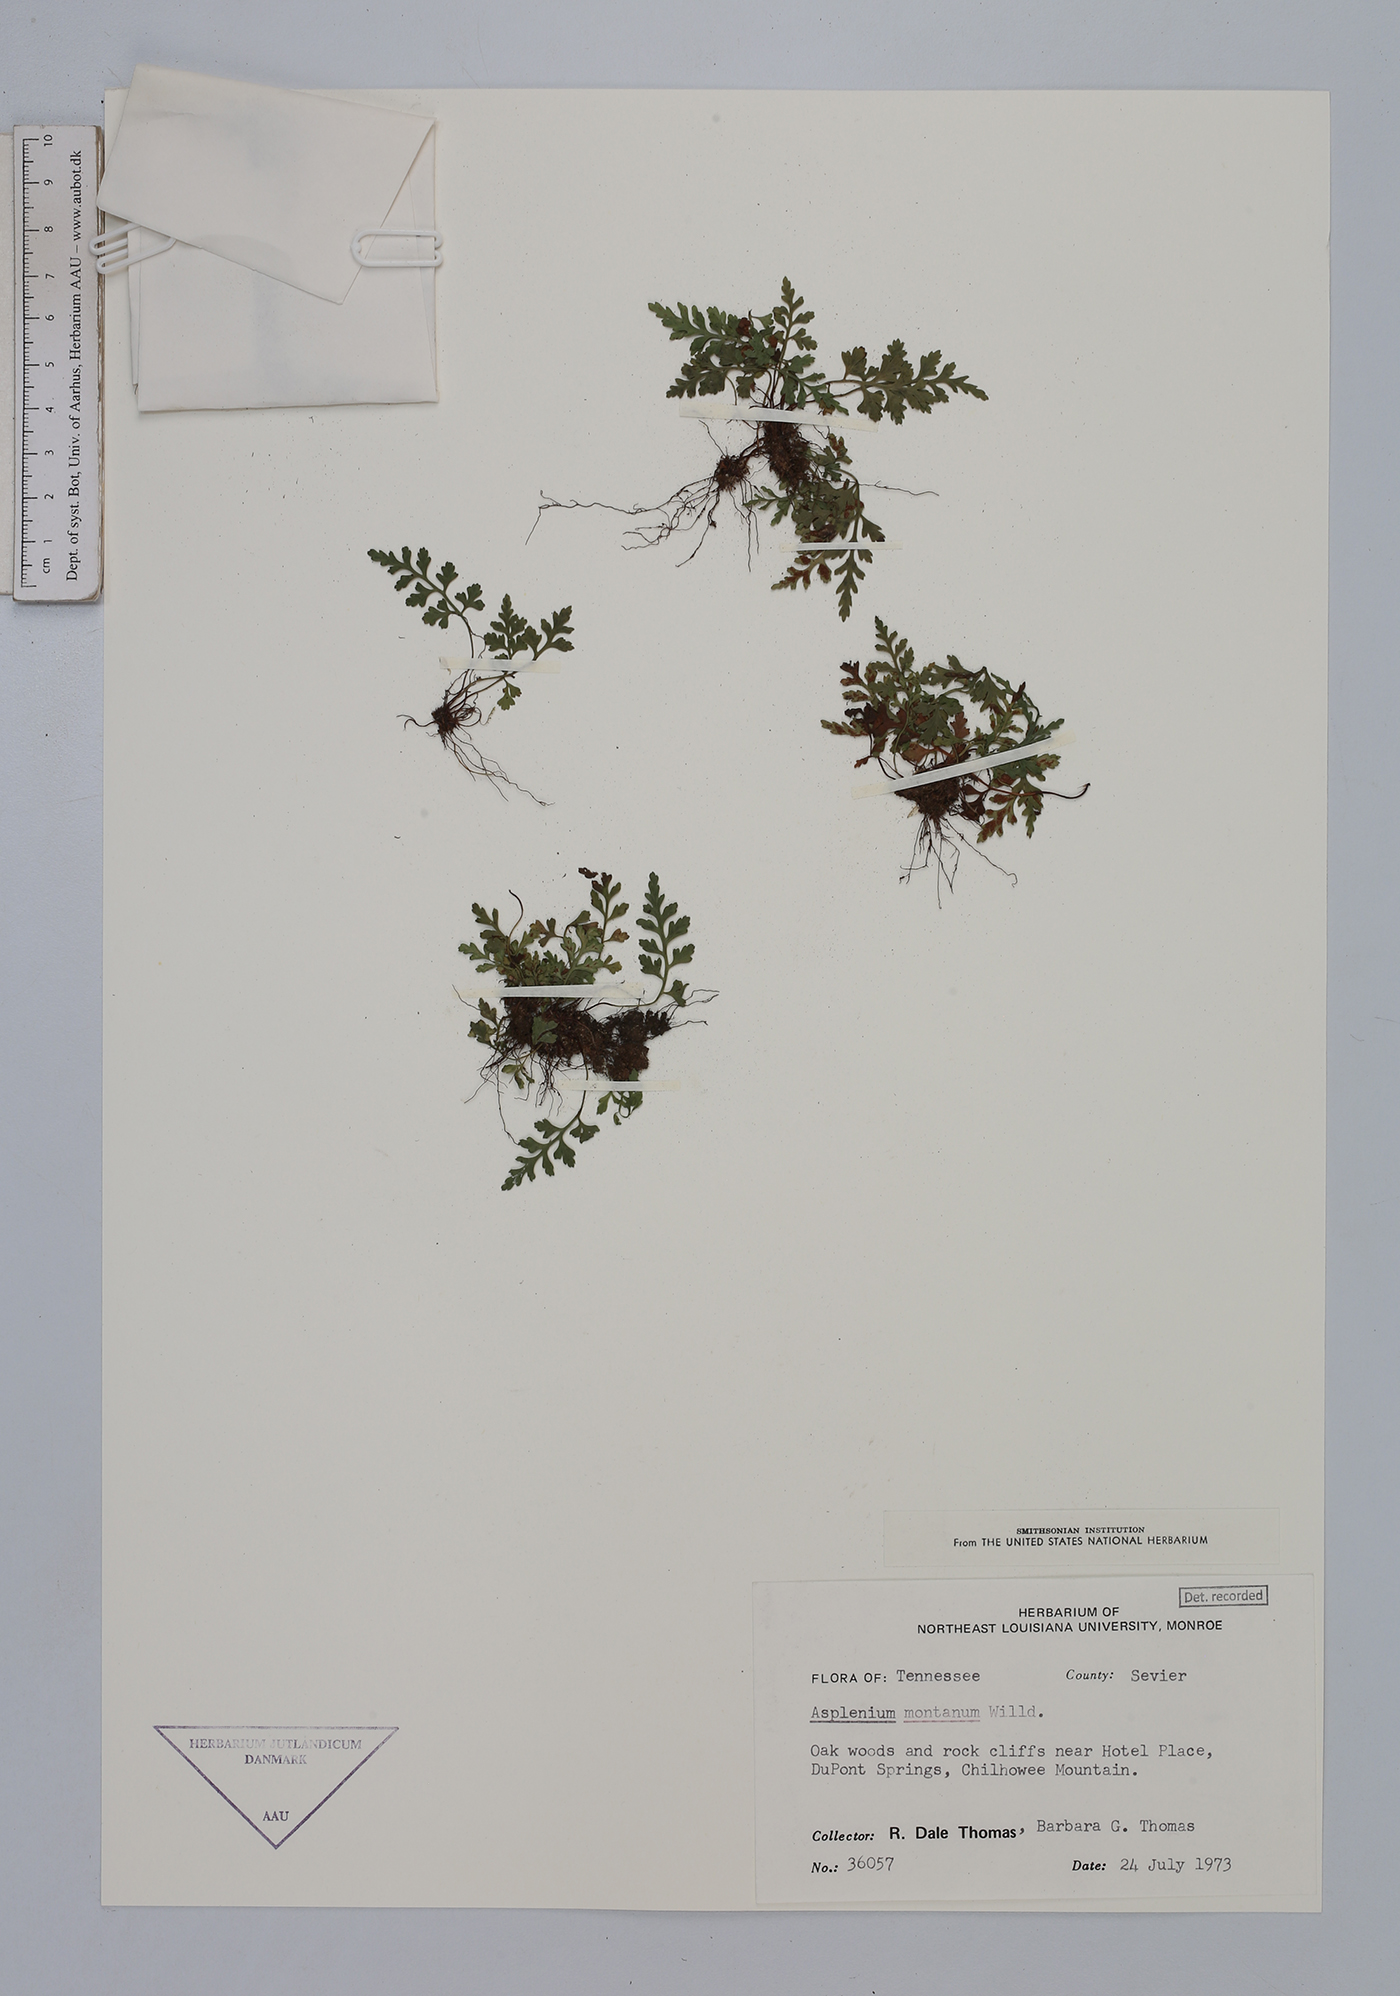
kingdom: Plantae
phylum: Tracheophyta
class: Polypodiopsida
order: Polypodiales
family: Aspleniaceae
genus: Asplenium
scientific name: Asplenium montanum
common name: Mountain spleenwort
